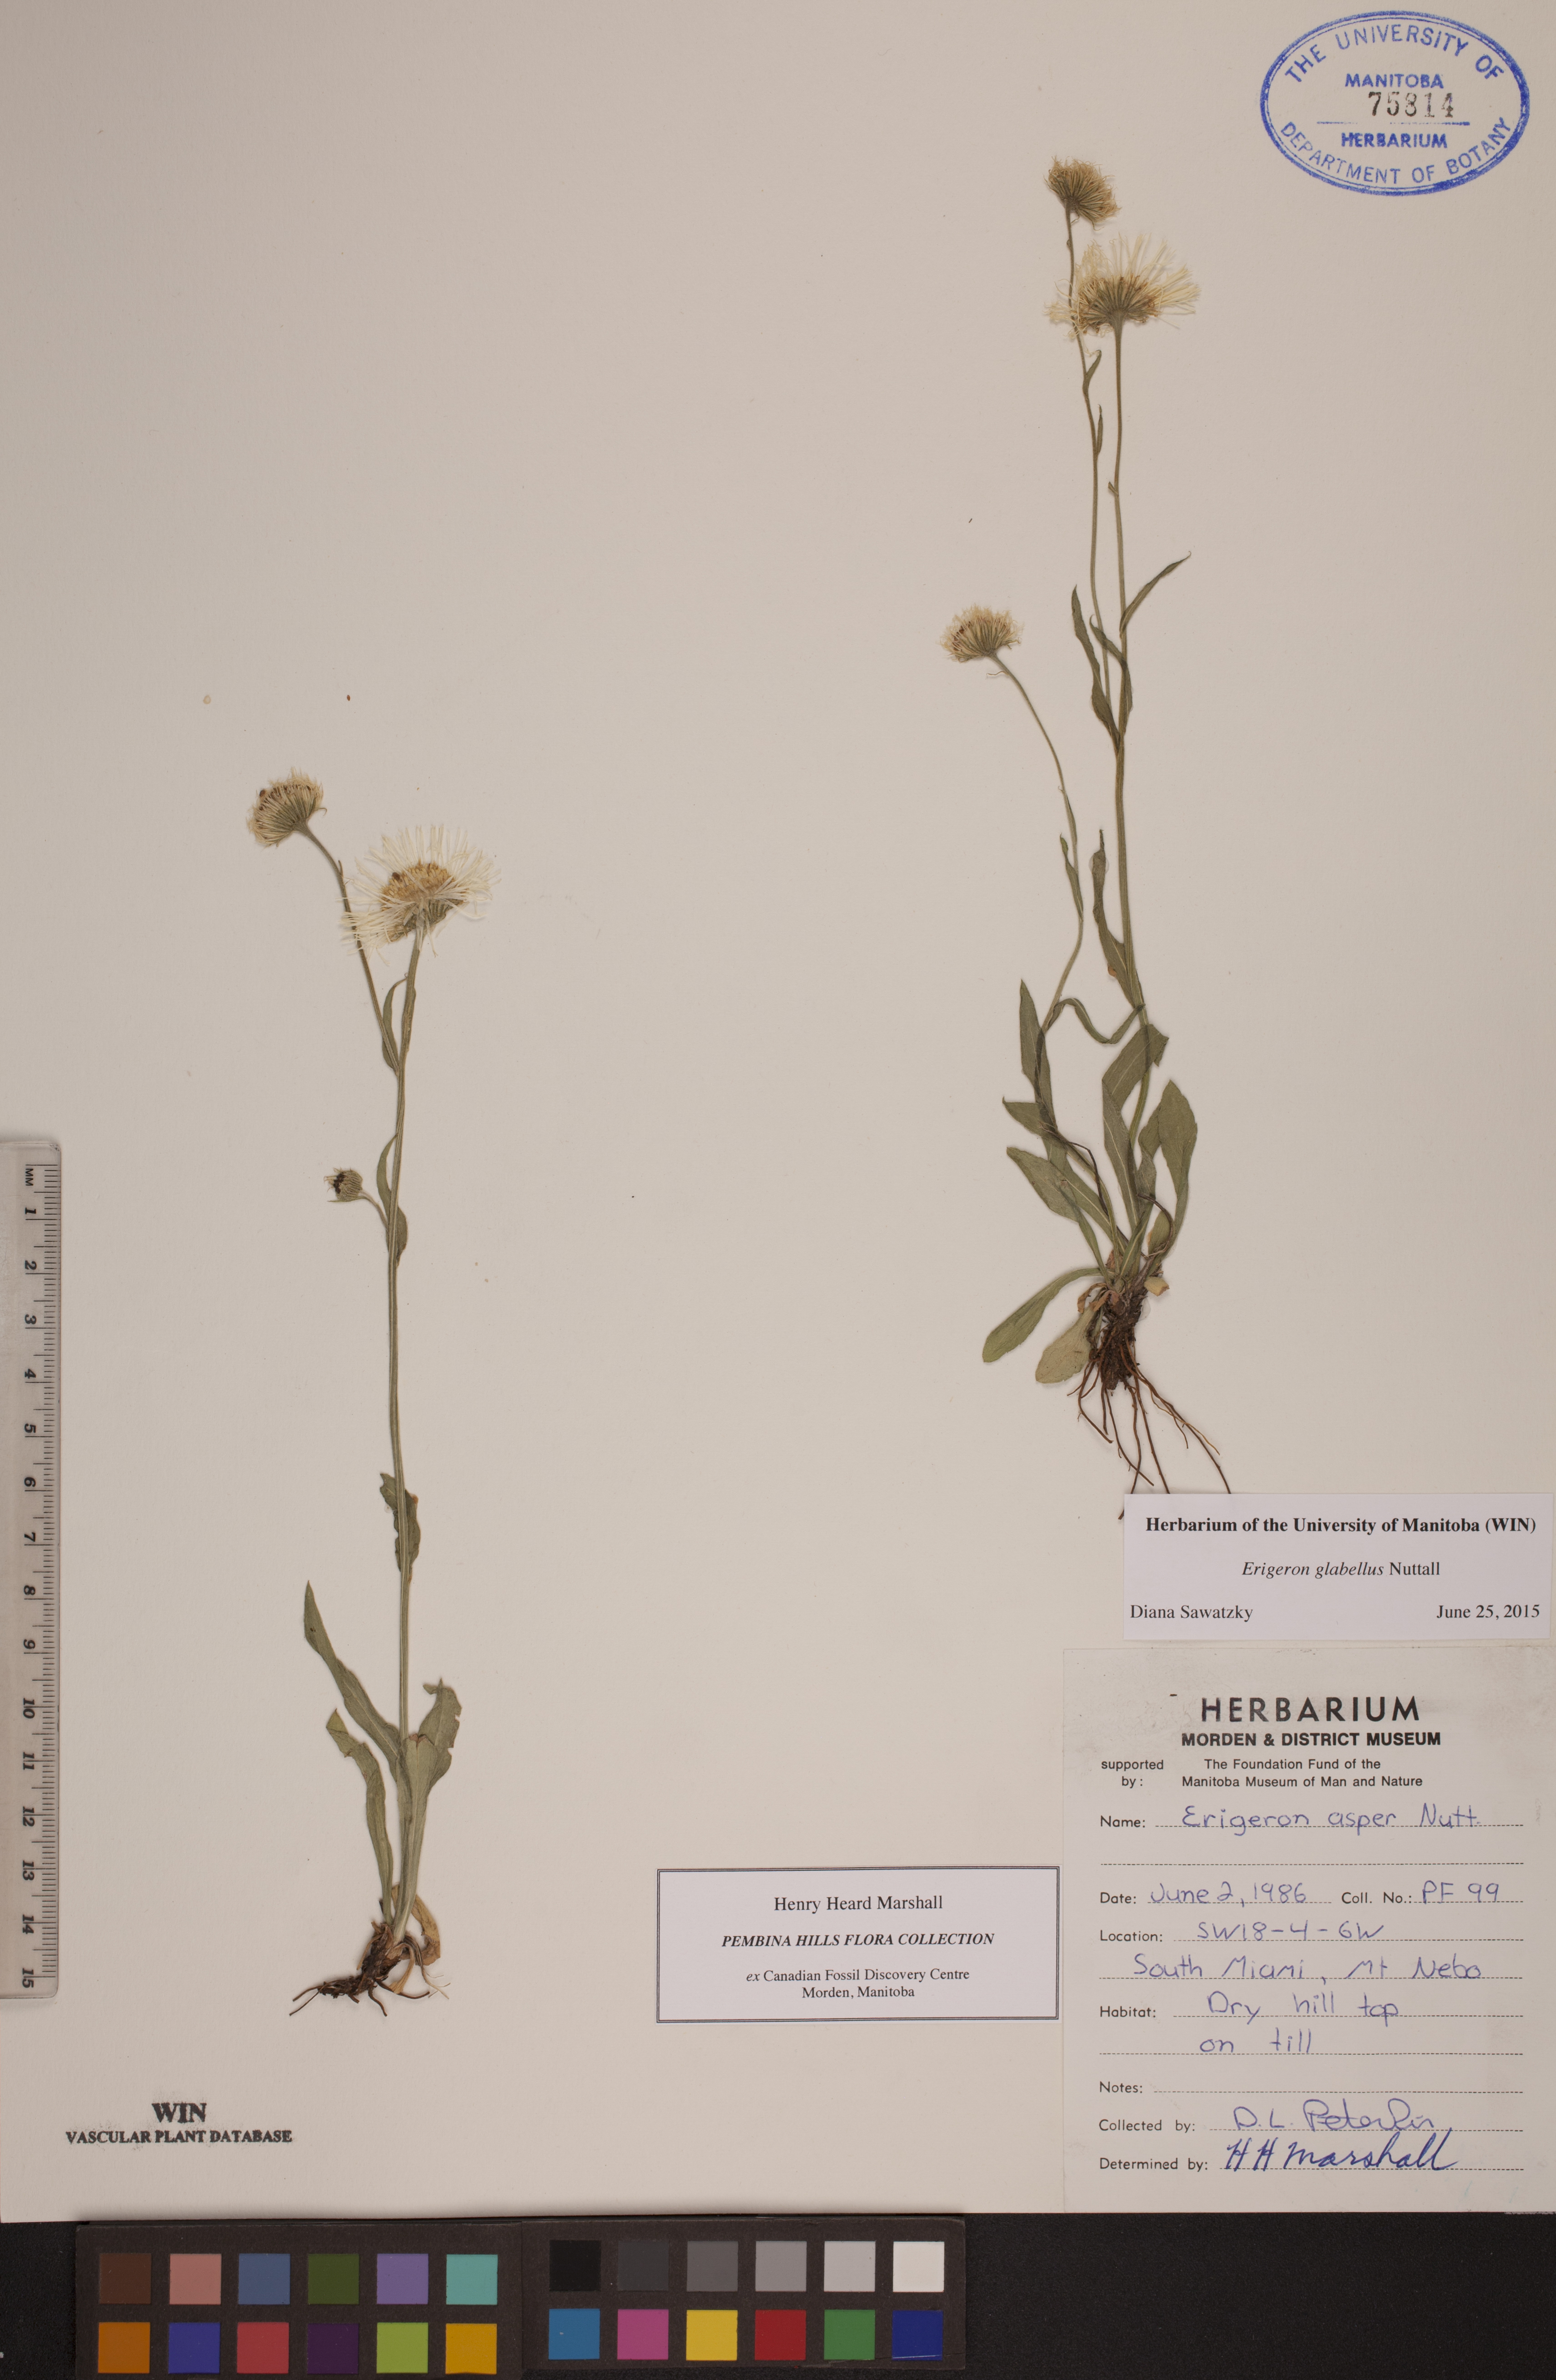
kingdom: Plantae
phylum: Tracheophyta
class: Magnoliopsida
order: Asterales
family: Asteraceae
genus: Erigeron
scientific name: Erigeron glabellus
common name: Smooth fleabane
